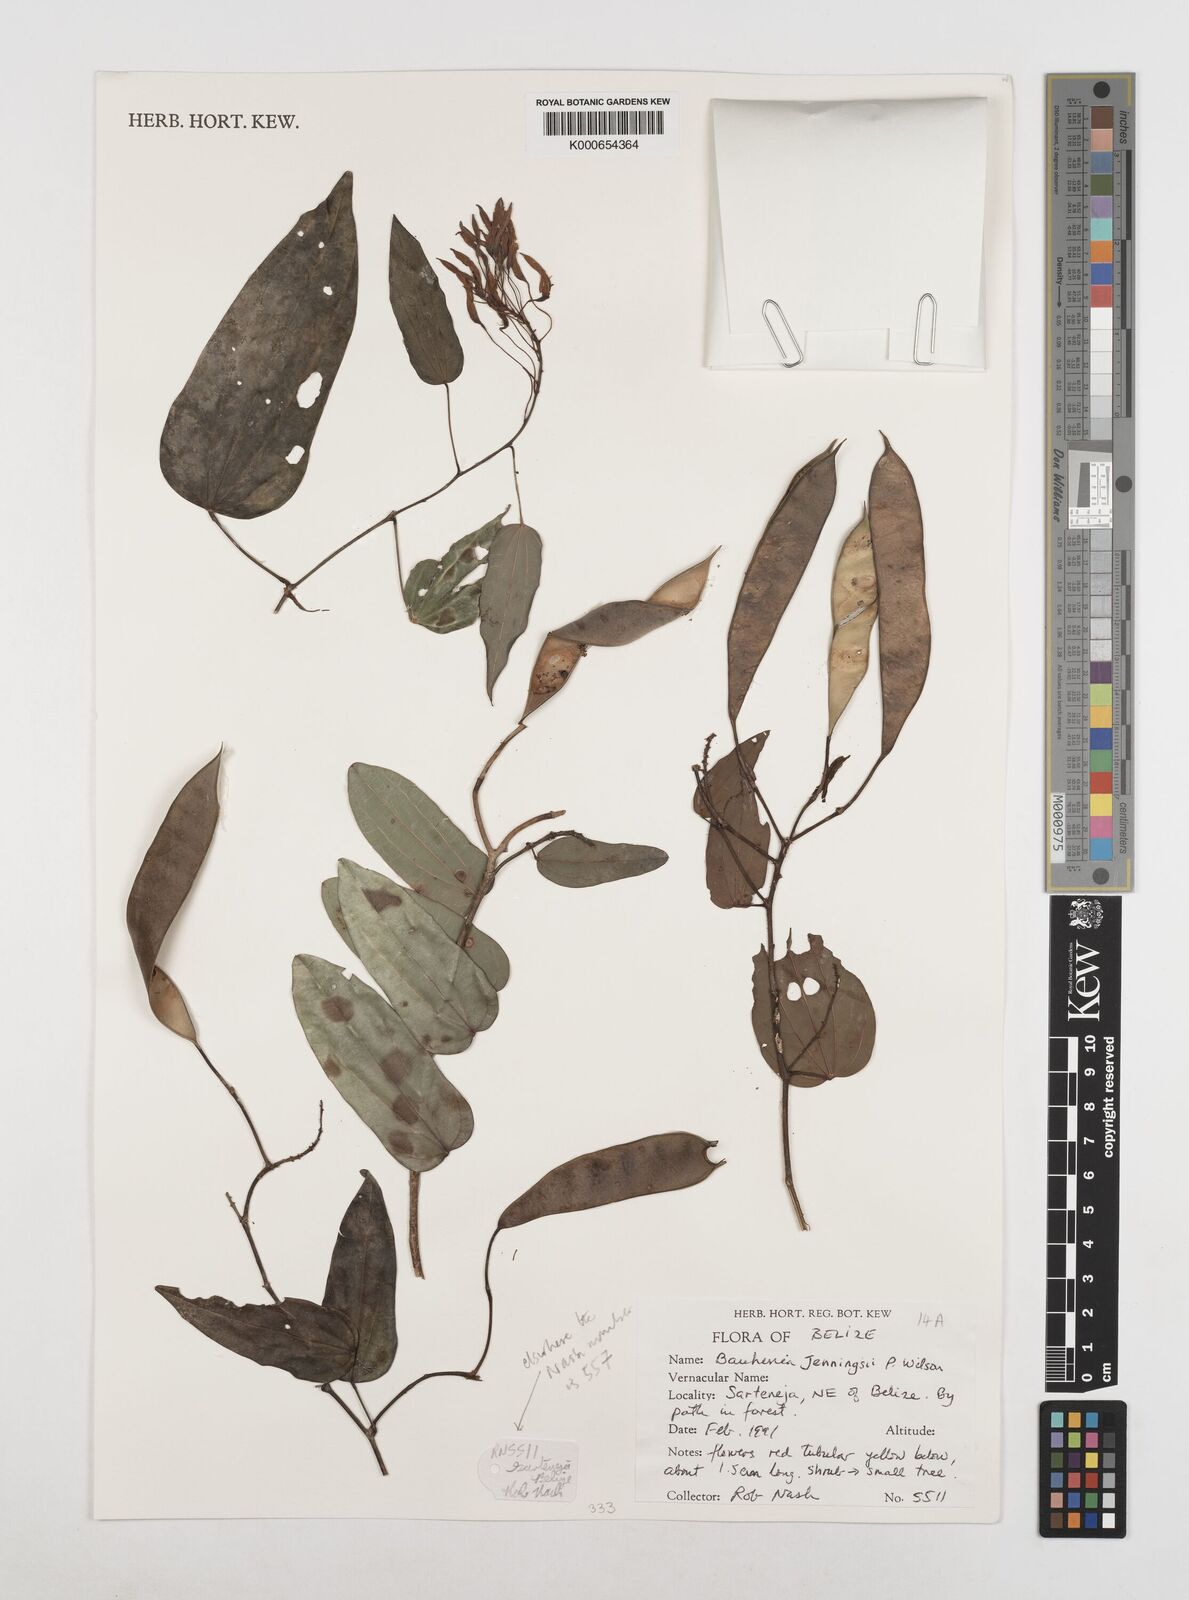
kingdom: Plantae
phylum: Tracheophyta
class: Magnoliopsida
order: Fabales
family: Fabaceae
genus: Bauhinia
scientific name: Bauhinia jenningsii
